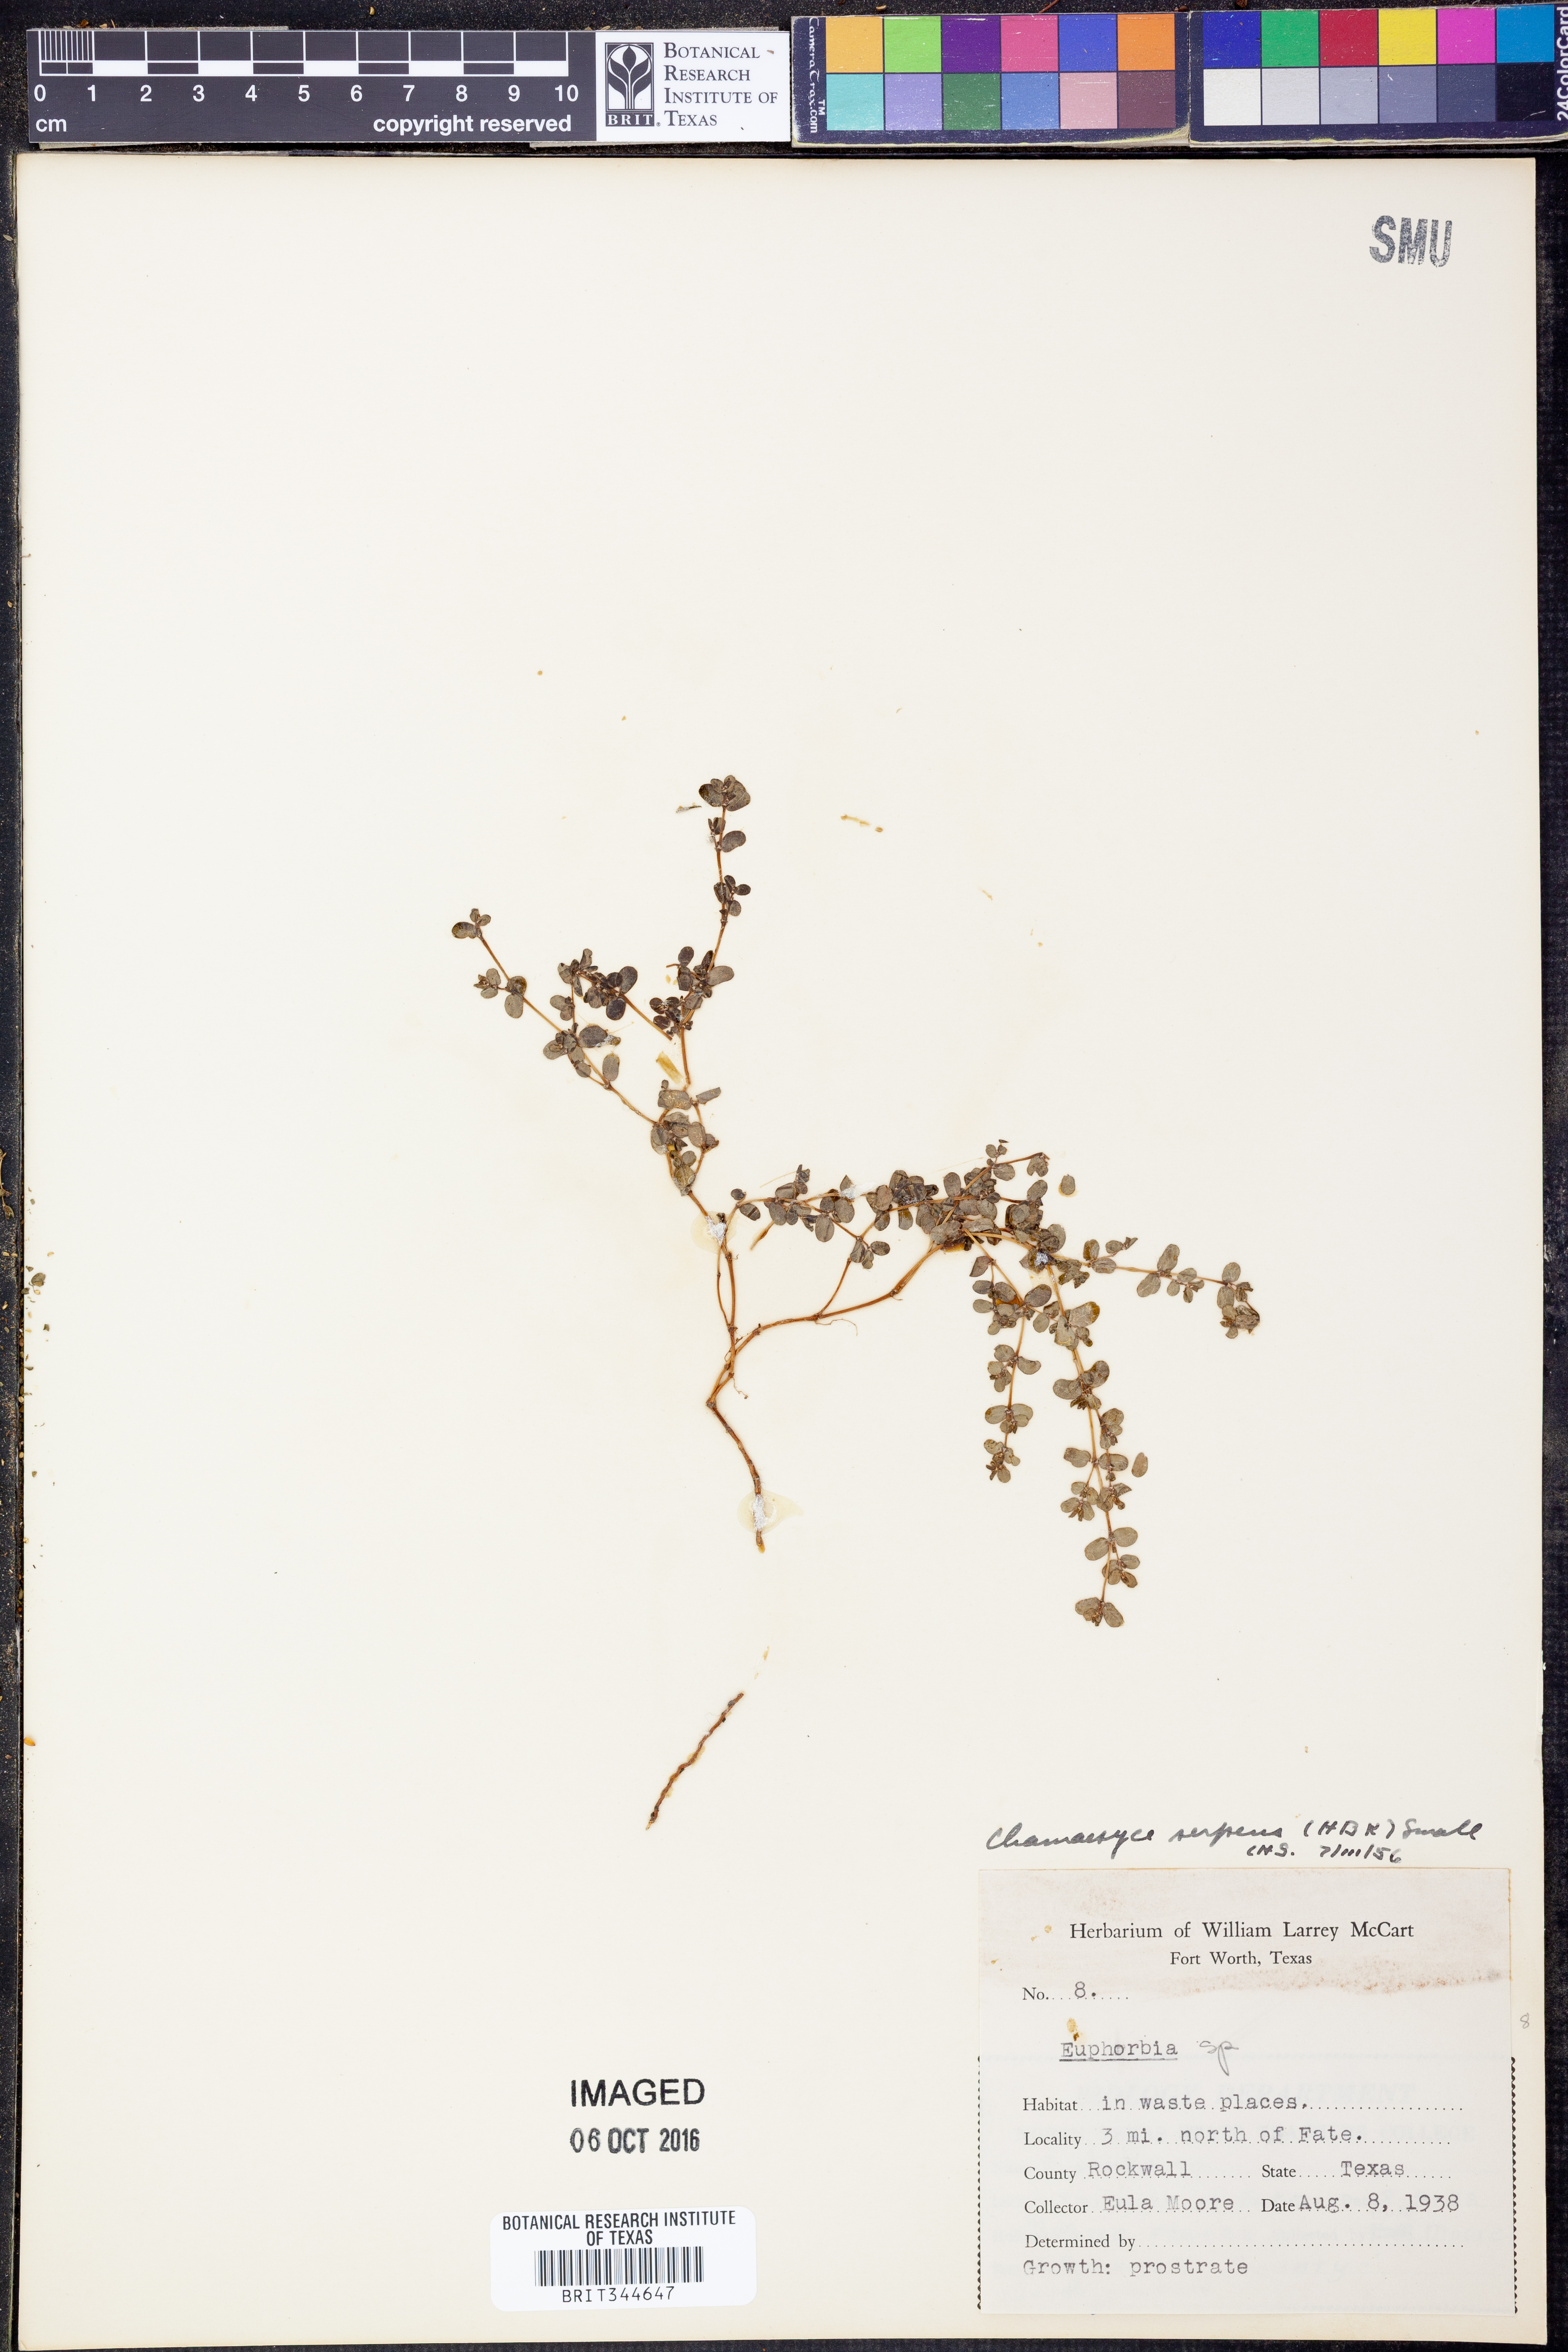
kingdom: Plantae
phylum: Tracheophyta
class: Magnoliopsida
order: Malpighiales
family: Euphorbiaceae
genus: Euphorbia
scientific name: Euphorbia serpens
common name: Matted sandmat
